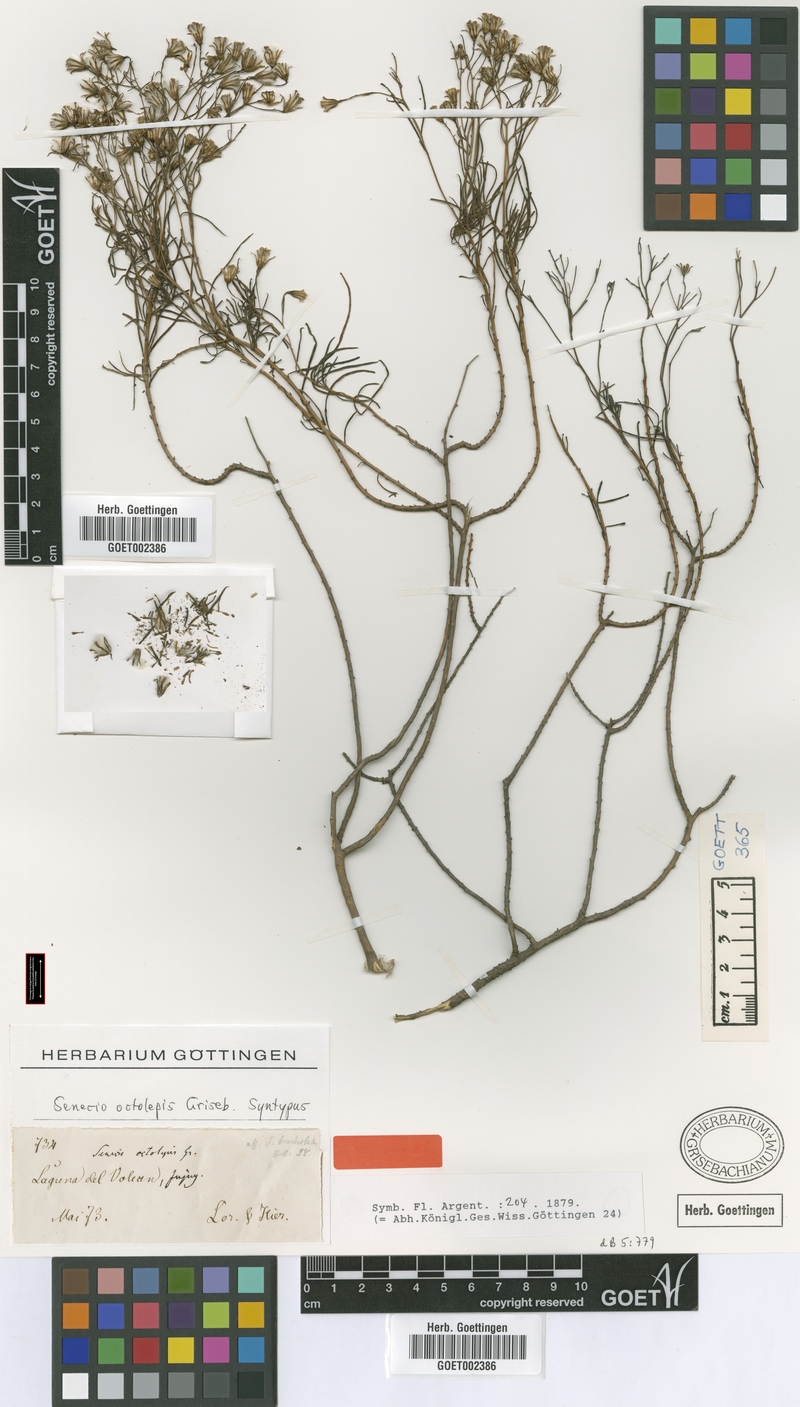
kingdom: Plantae
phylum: Tracheophyta
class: Magnoliopsida
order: Asterales
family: Asteraceae
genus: Senecio
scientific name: Senecio octolepis
